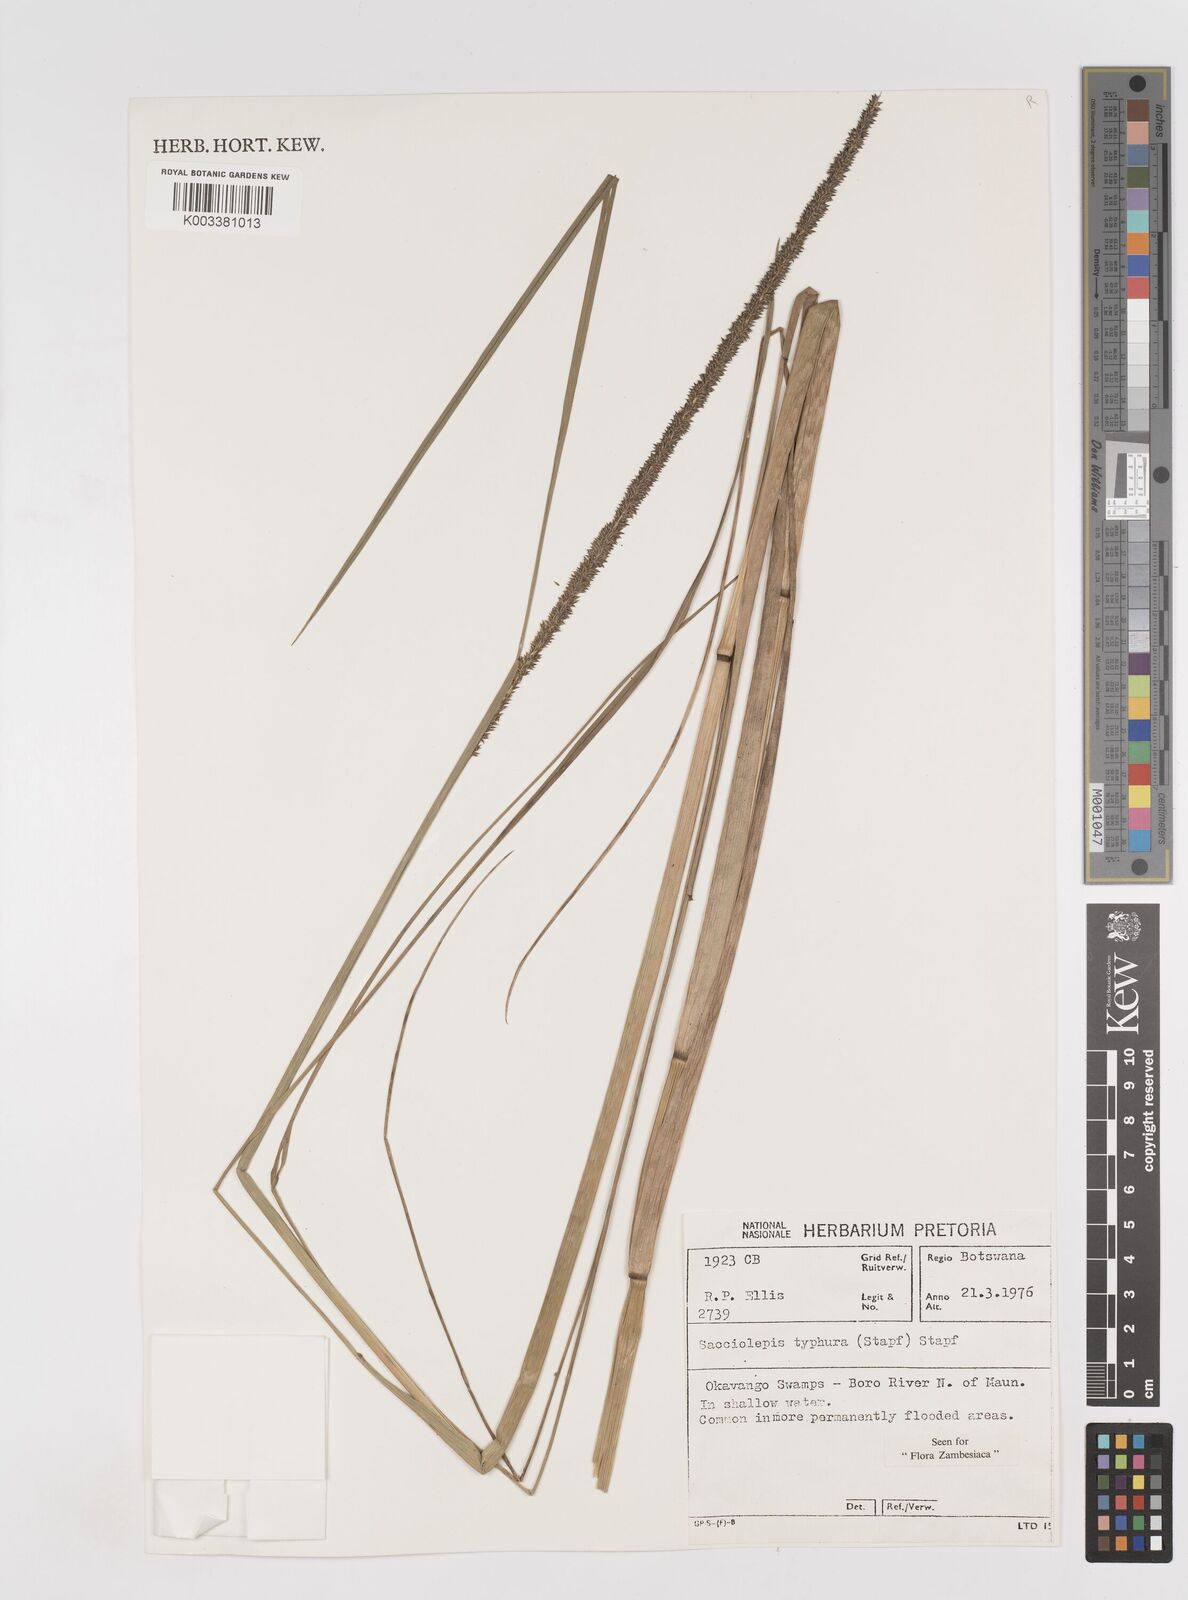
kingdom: Plantae
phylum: Tracheophyta
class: Liliopsida
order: Poales
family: Poaceae
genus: Sacciolepis
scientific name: Sacciolepis typhura
